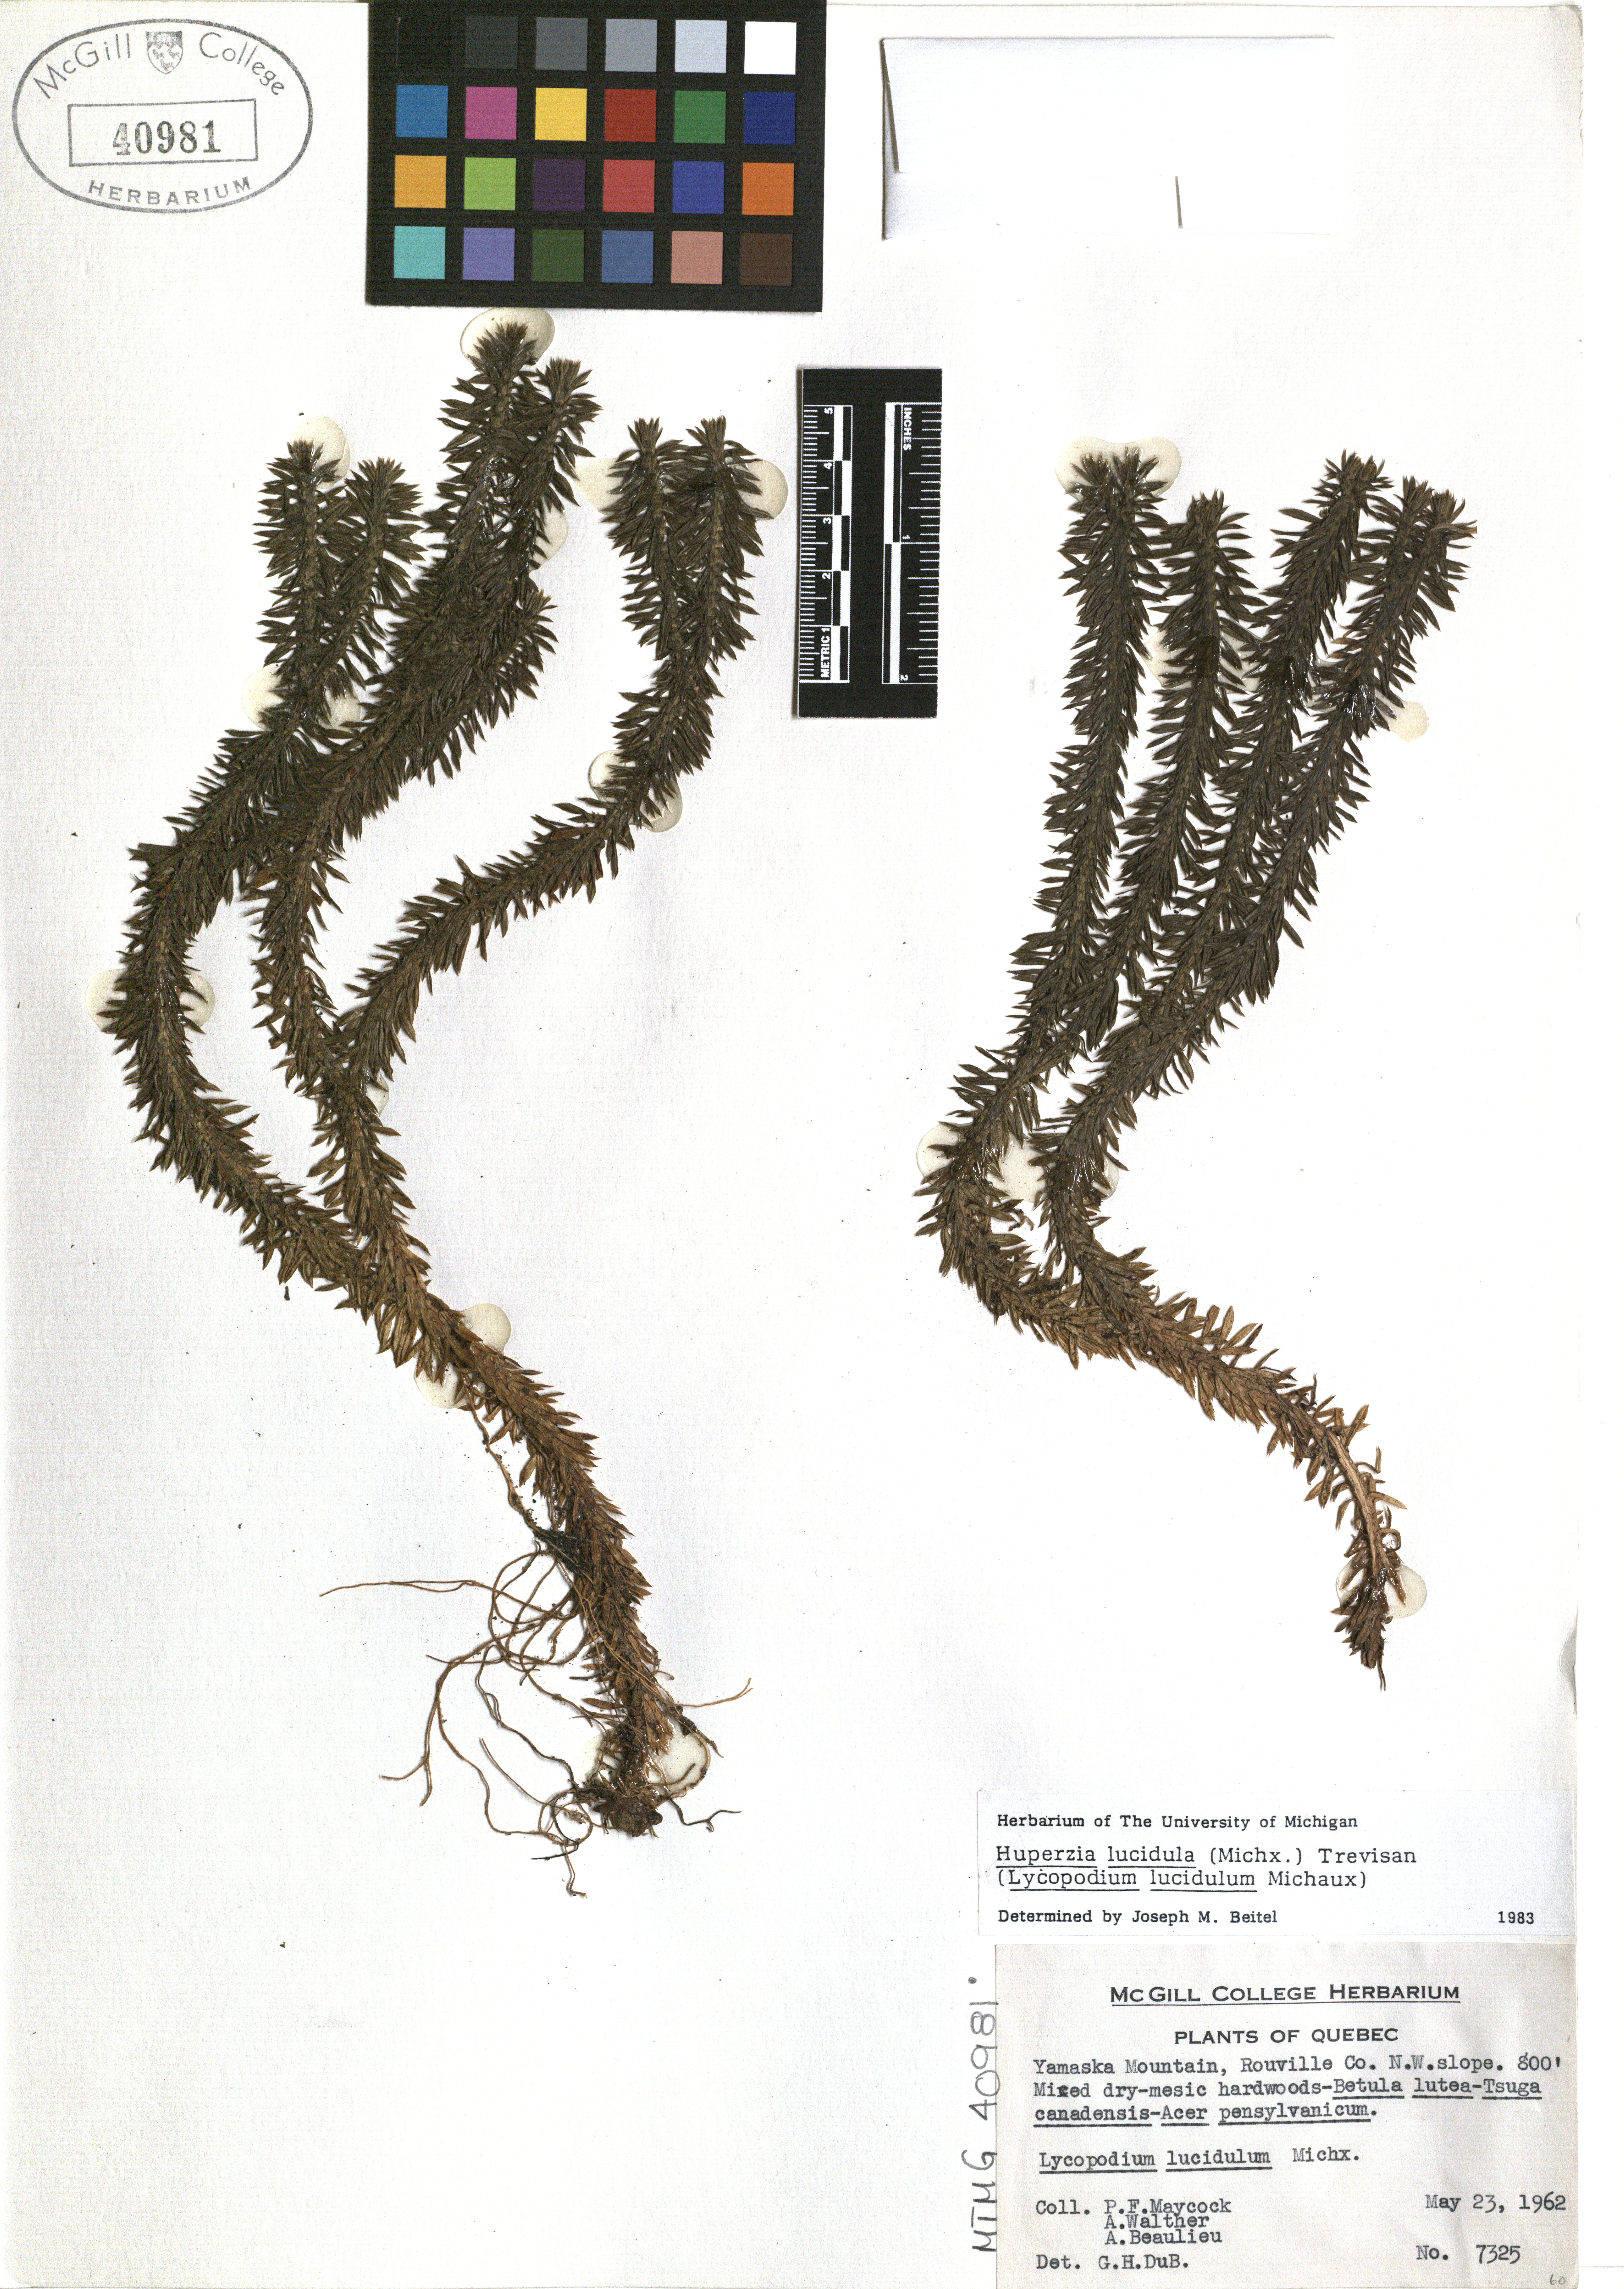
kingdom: Plantae
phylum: Tracheophyta
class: Lycopodiopsida
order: Lycopodiales
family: Lycopodiaceae
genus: Huperzia
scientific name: Huperzia lucidula
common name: Shining clubmoss
